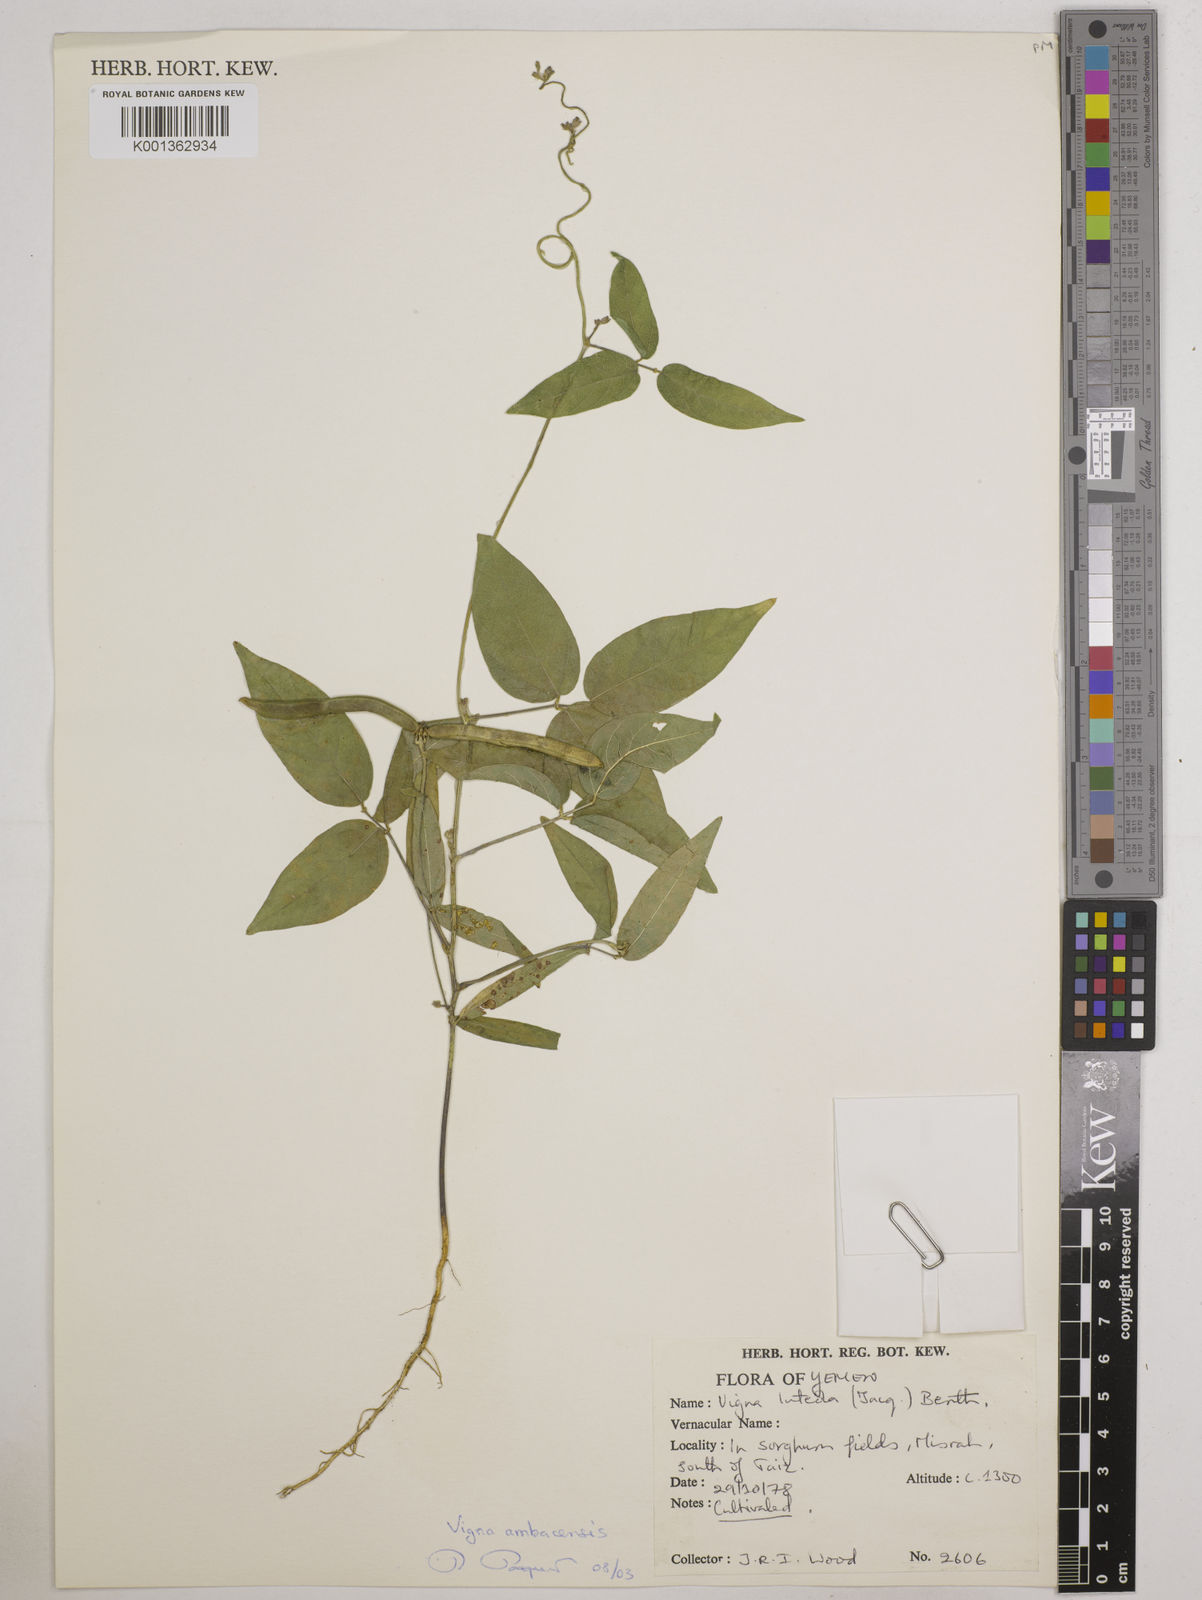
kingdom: Plantae
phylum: Tracheophyta
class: Magnoliopsida
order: Fabales
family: Fabaceae
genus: Vigna
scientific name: Vigna luteola
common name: Hairypod cowpea
